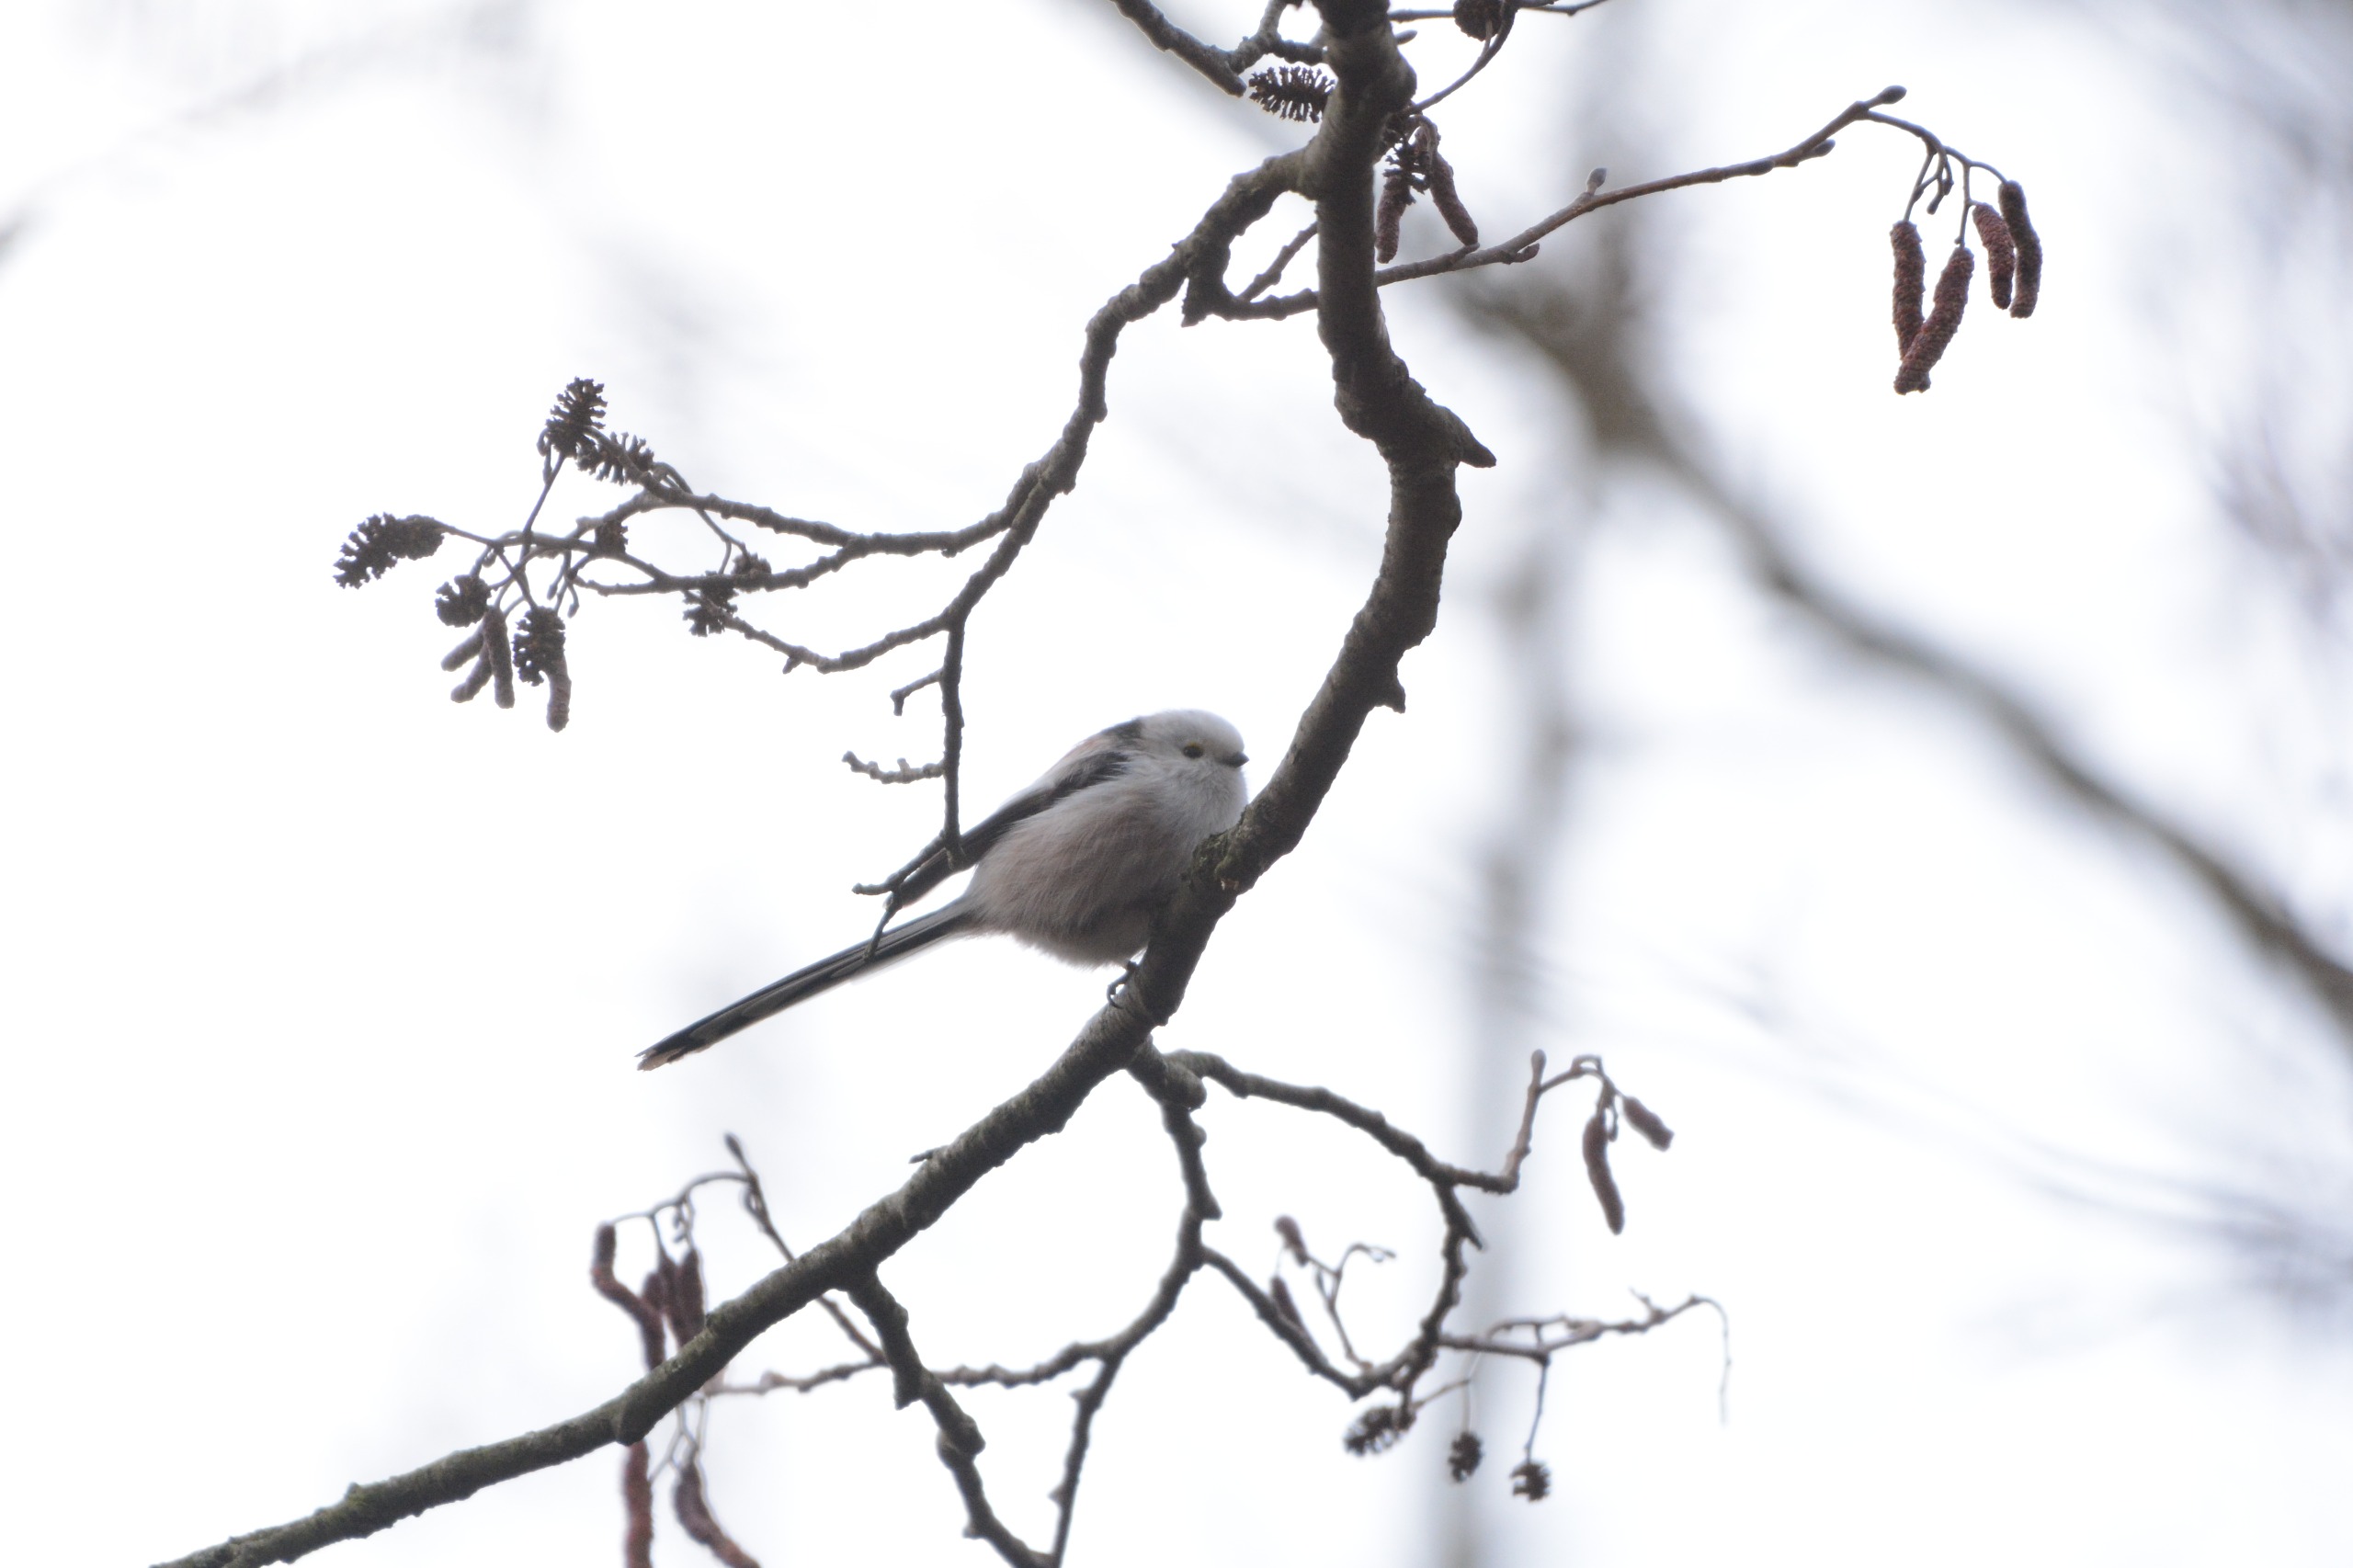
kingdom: Animalia
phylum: Chordata
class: Aves
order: Passeriformes
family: Aegithalidae
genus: Aegithalos
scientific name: Aegithalos caudatus
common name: Nordlig halemejse
